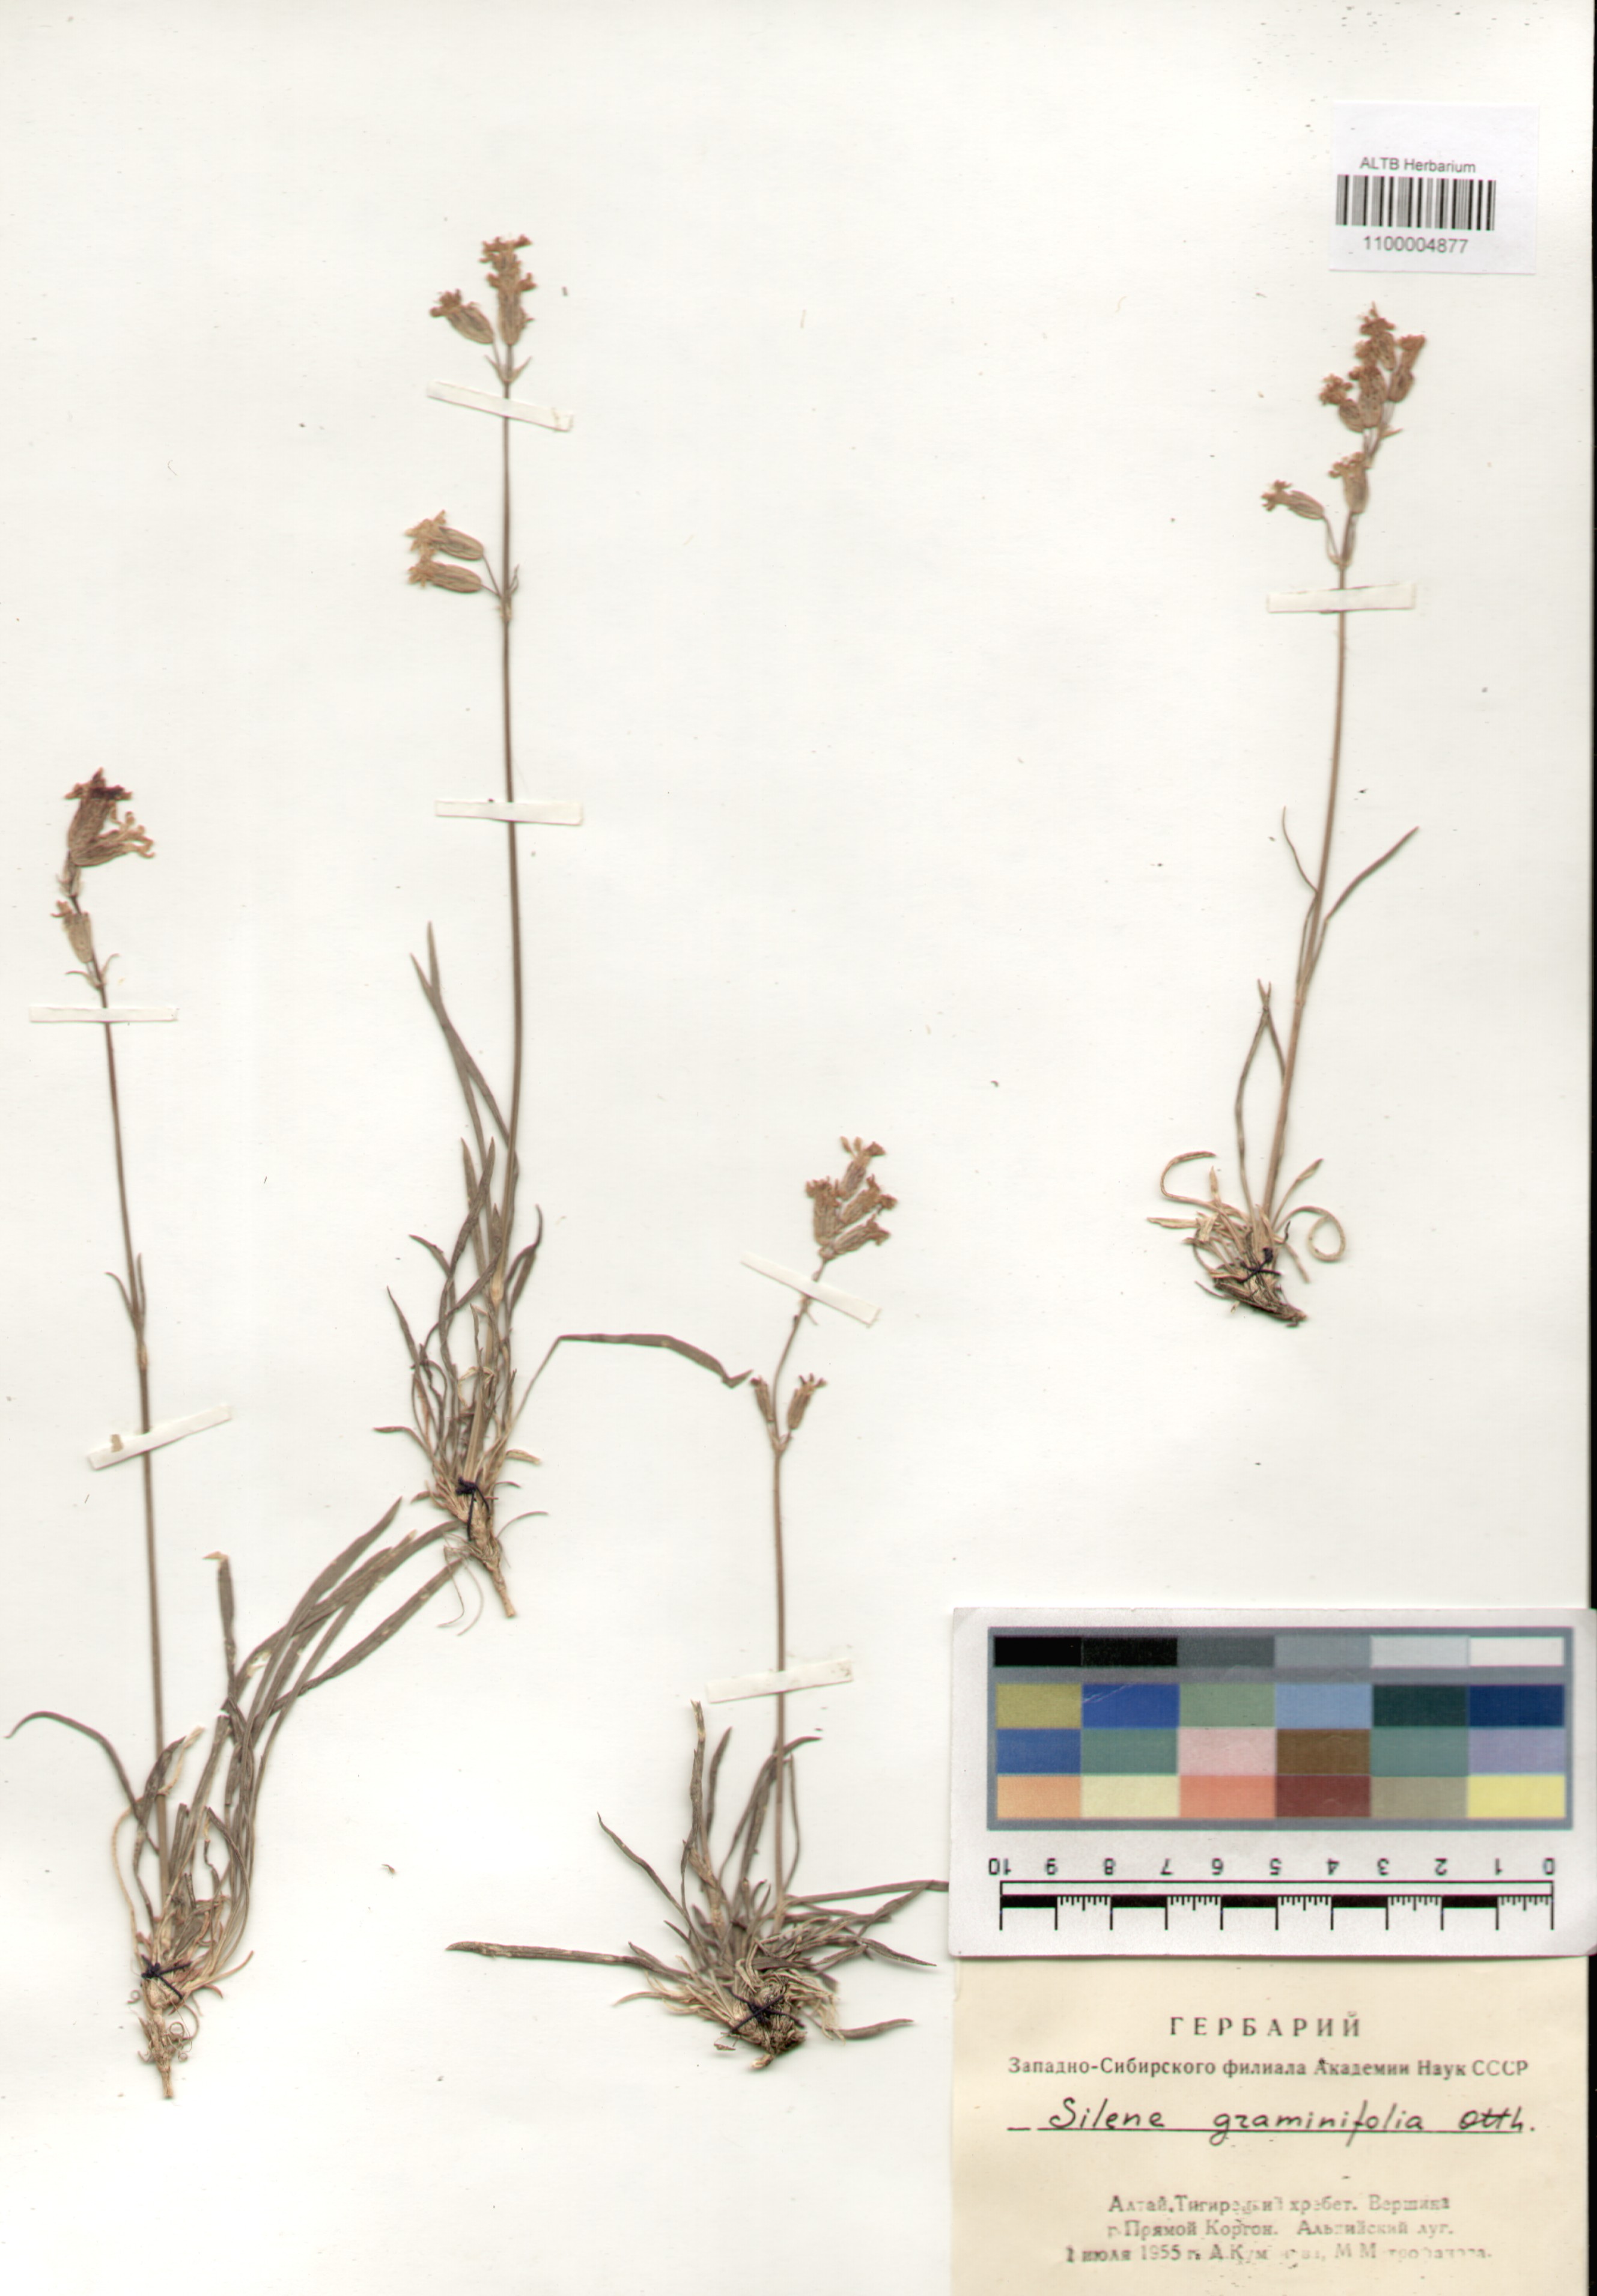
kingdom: Plantae
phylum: Tracheophyta
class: Magnoliopsida
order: Caryophyllales
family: Caryophyllaceae
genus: Silene
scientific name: Silene graminifolia
